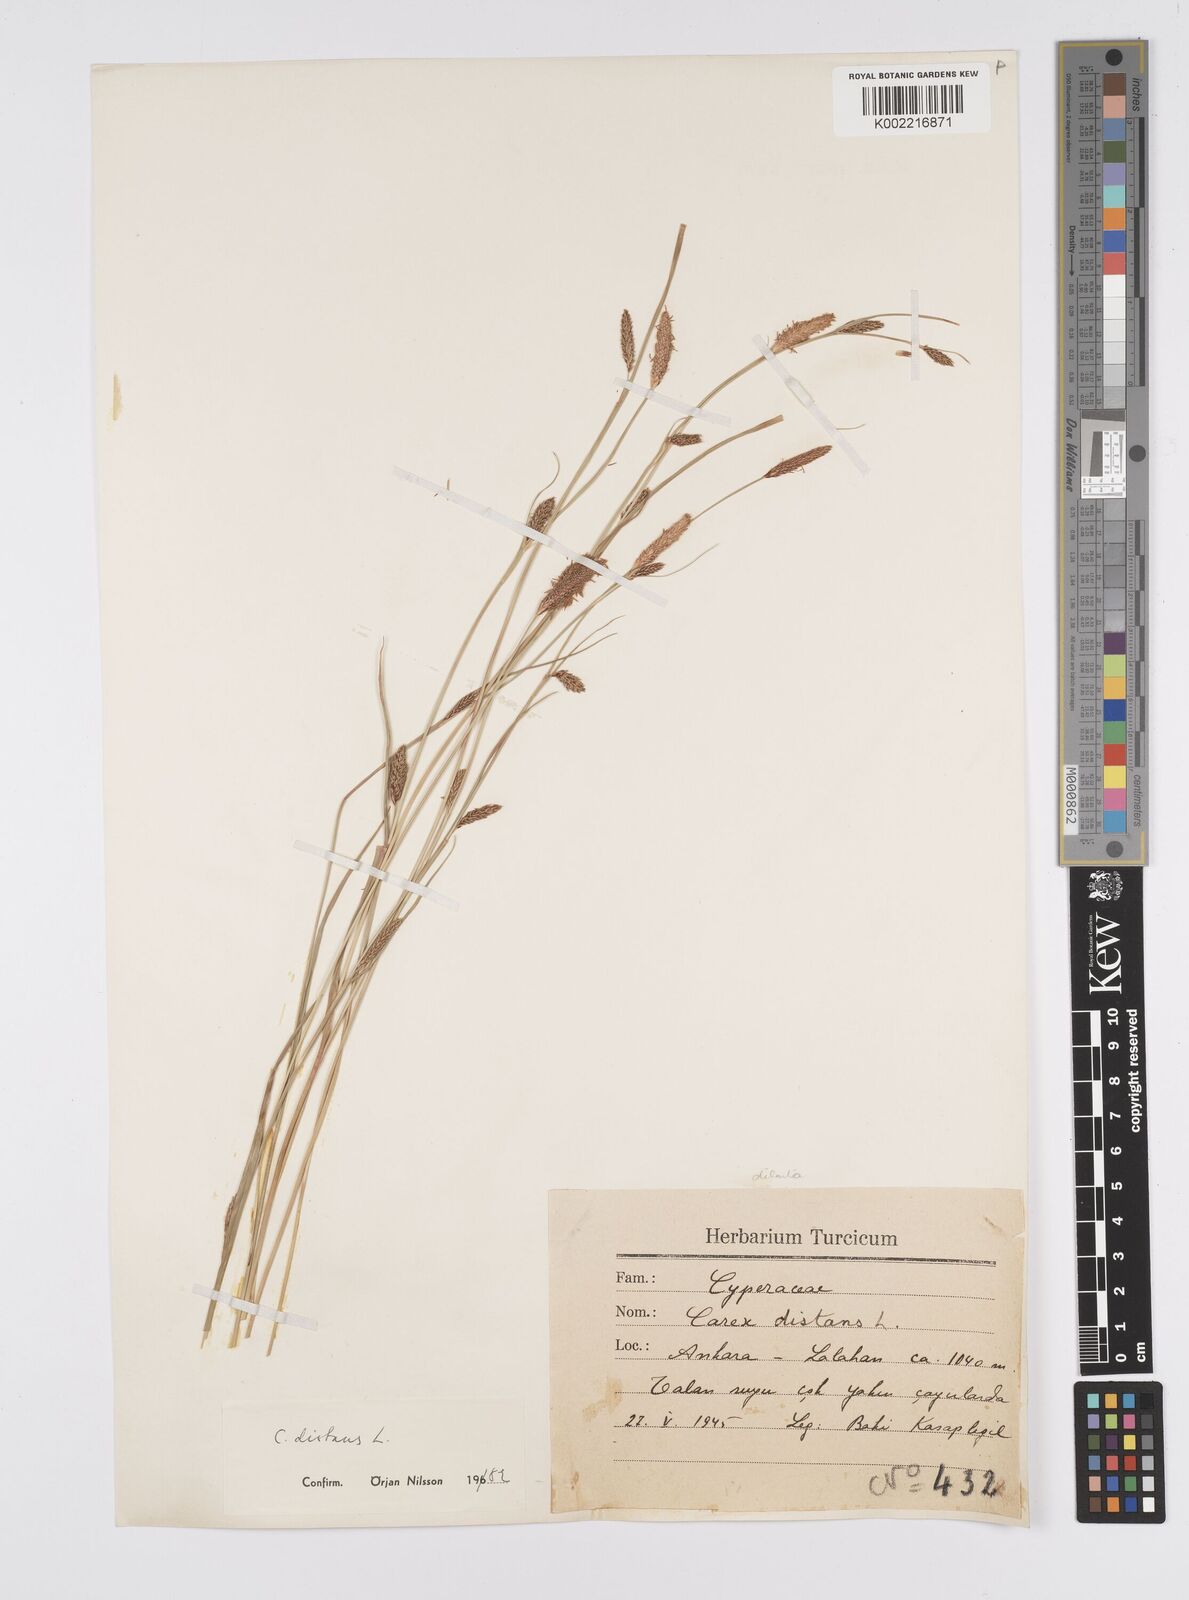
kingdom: Plantae
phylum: Tracheophyta
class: Liliopsida
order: Poales
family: Cyperaceae
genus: Carex
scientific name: Carex distans
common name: Distant sedge
